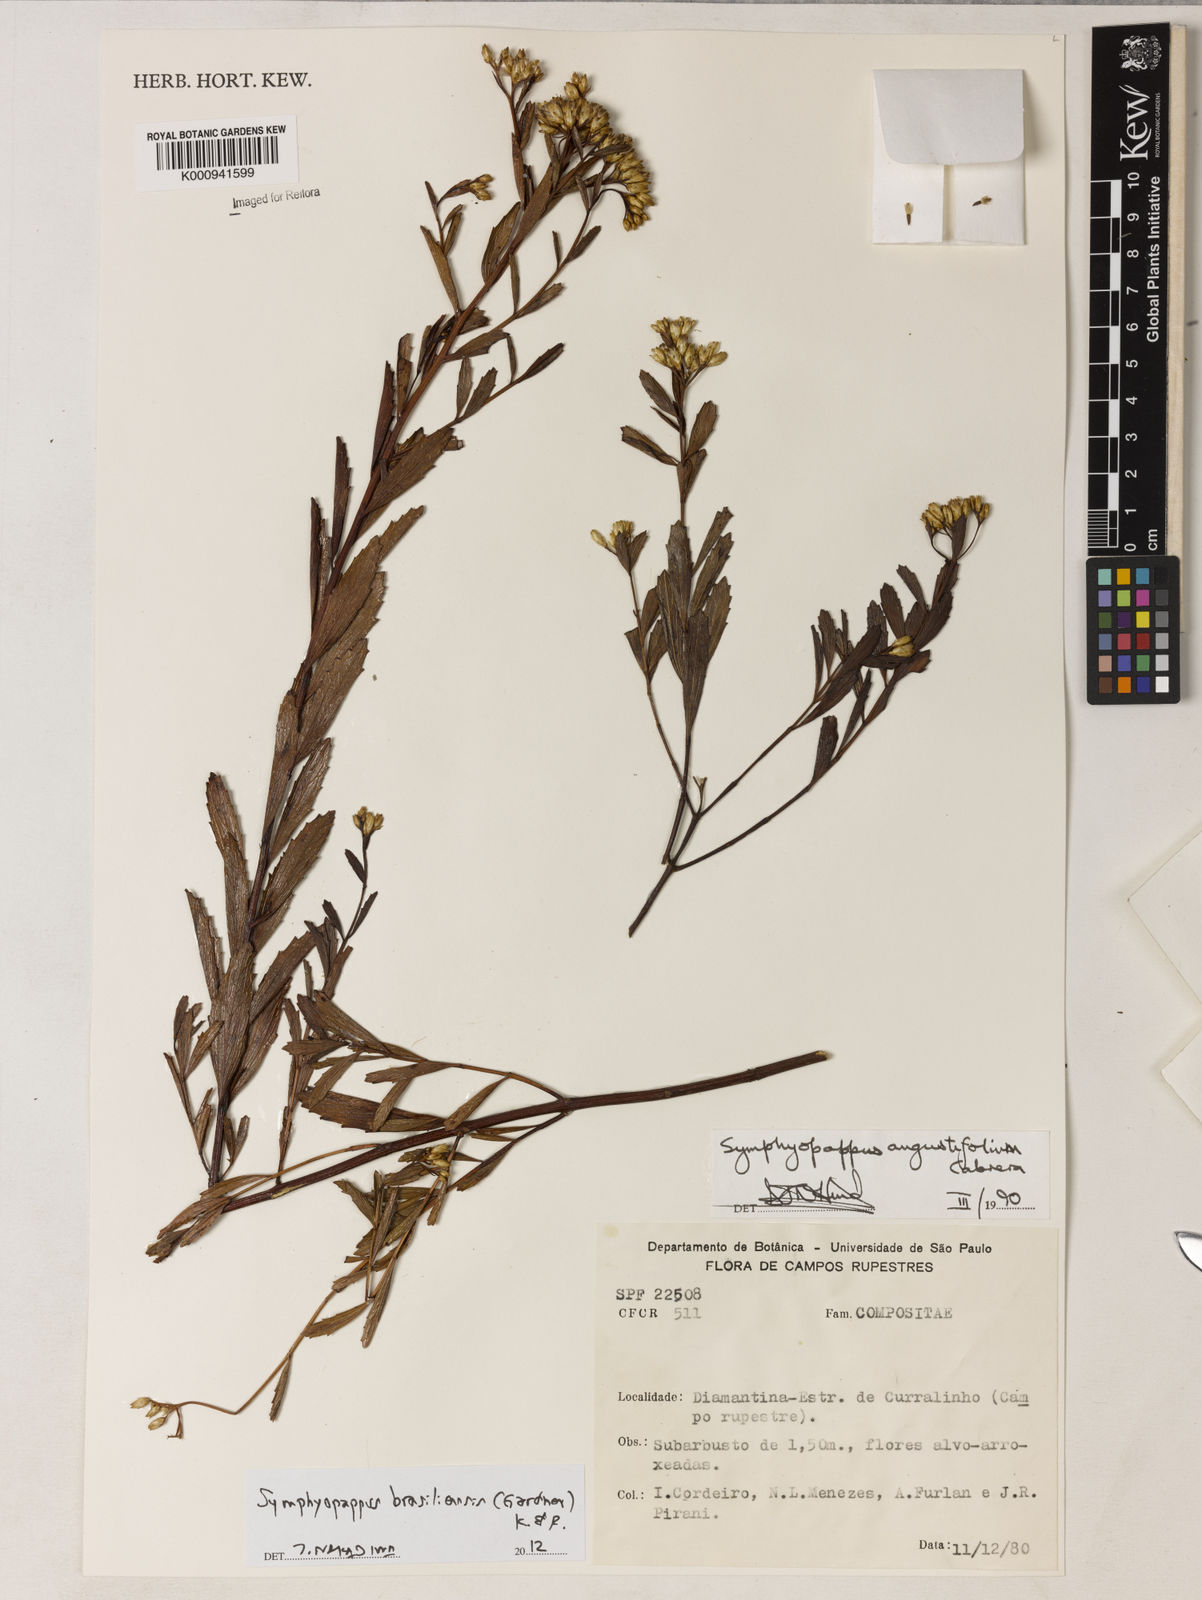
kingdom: Plantae
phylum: Tracheophyta
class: Magnoliopsida
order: Asterales
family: Asteraceae
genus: Symphyopappus
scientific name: Symphyopappus brasiliensis
